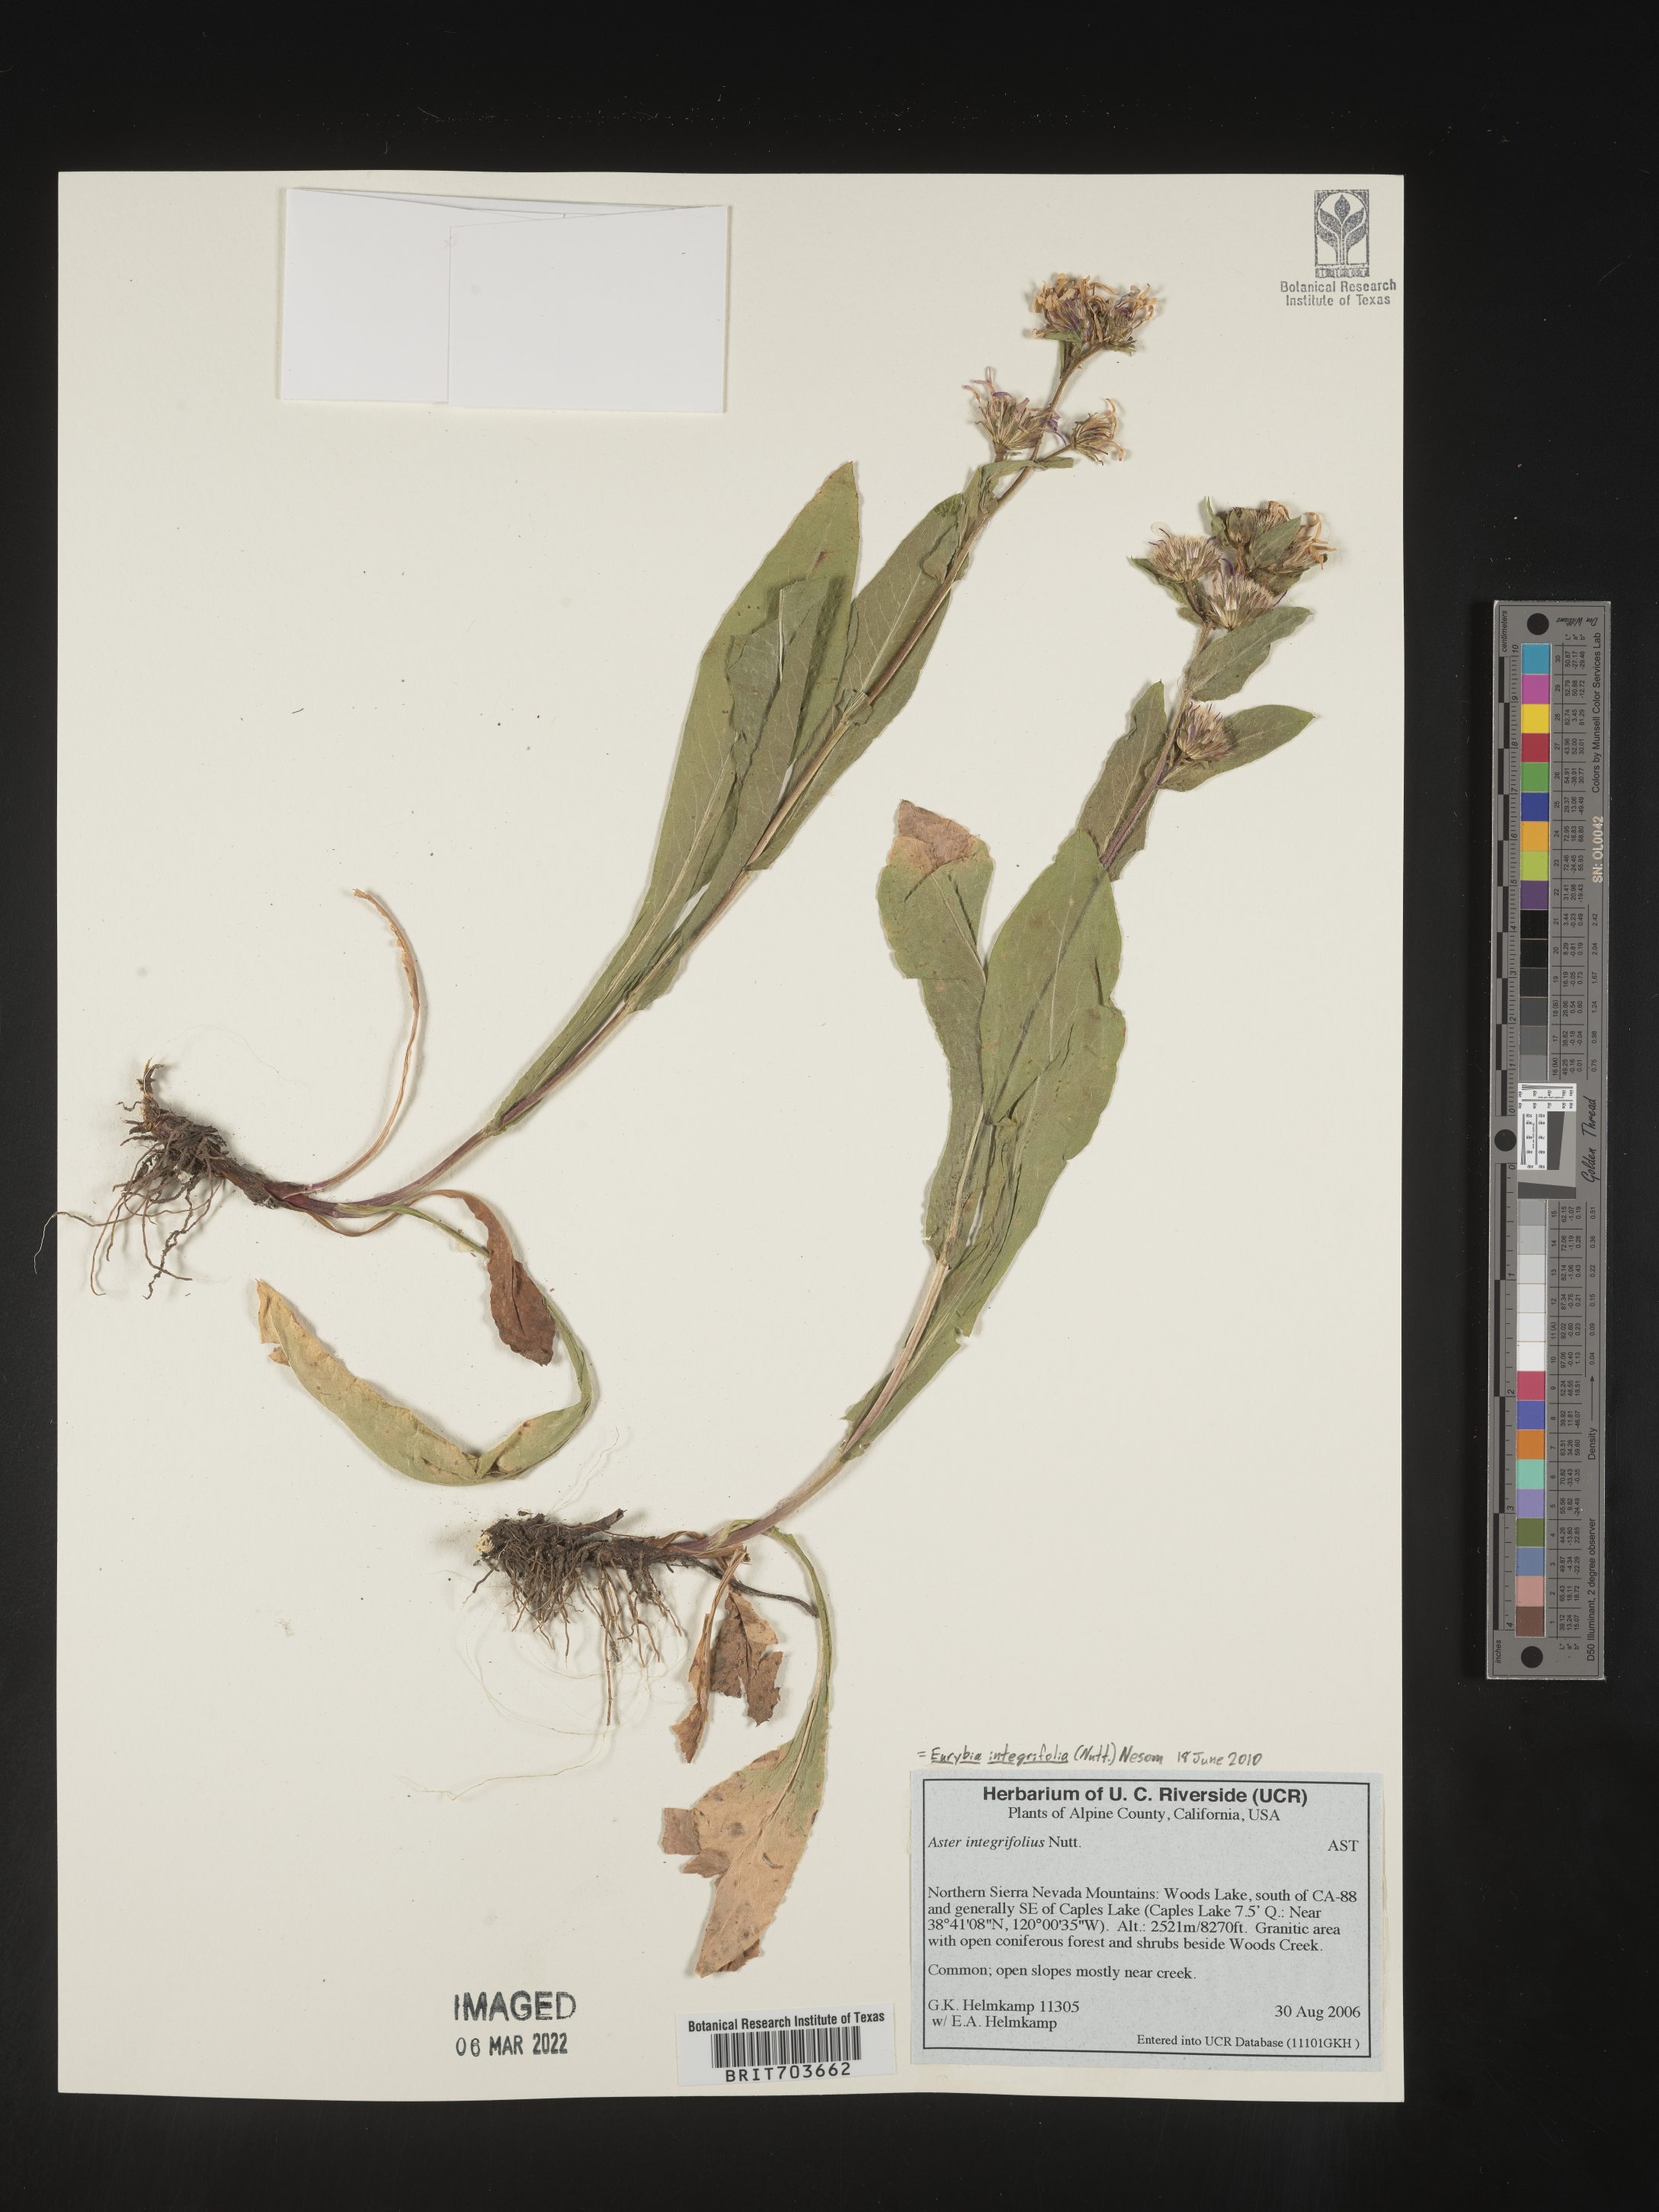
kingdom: Plantae
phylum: Tracheophyta
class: Magnoliopsida
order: Asterales
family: Asteraceae
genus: Eurybia
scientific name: Eurybia integrifolia
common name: Thick-stem aster
